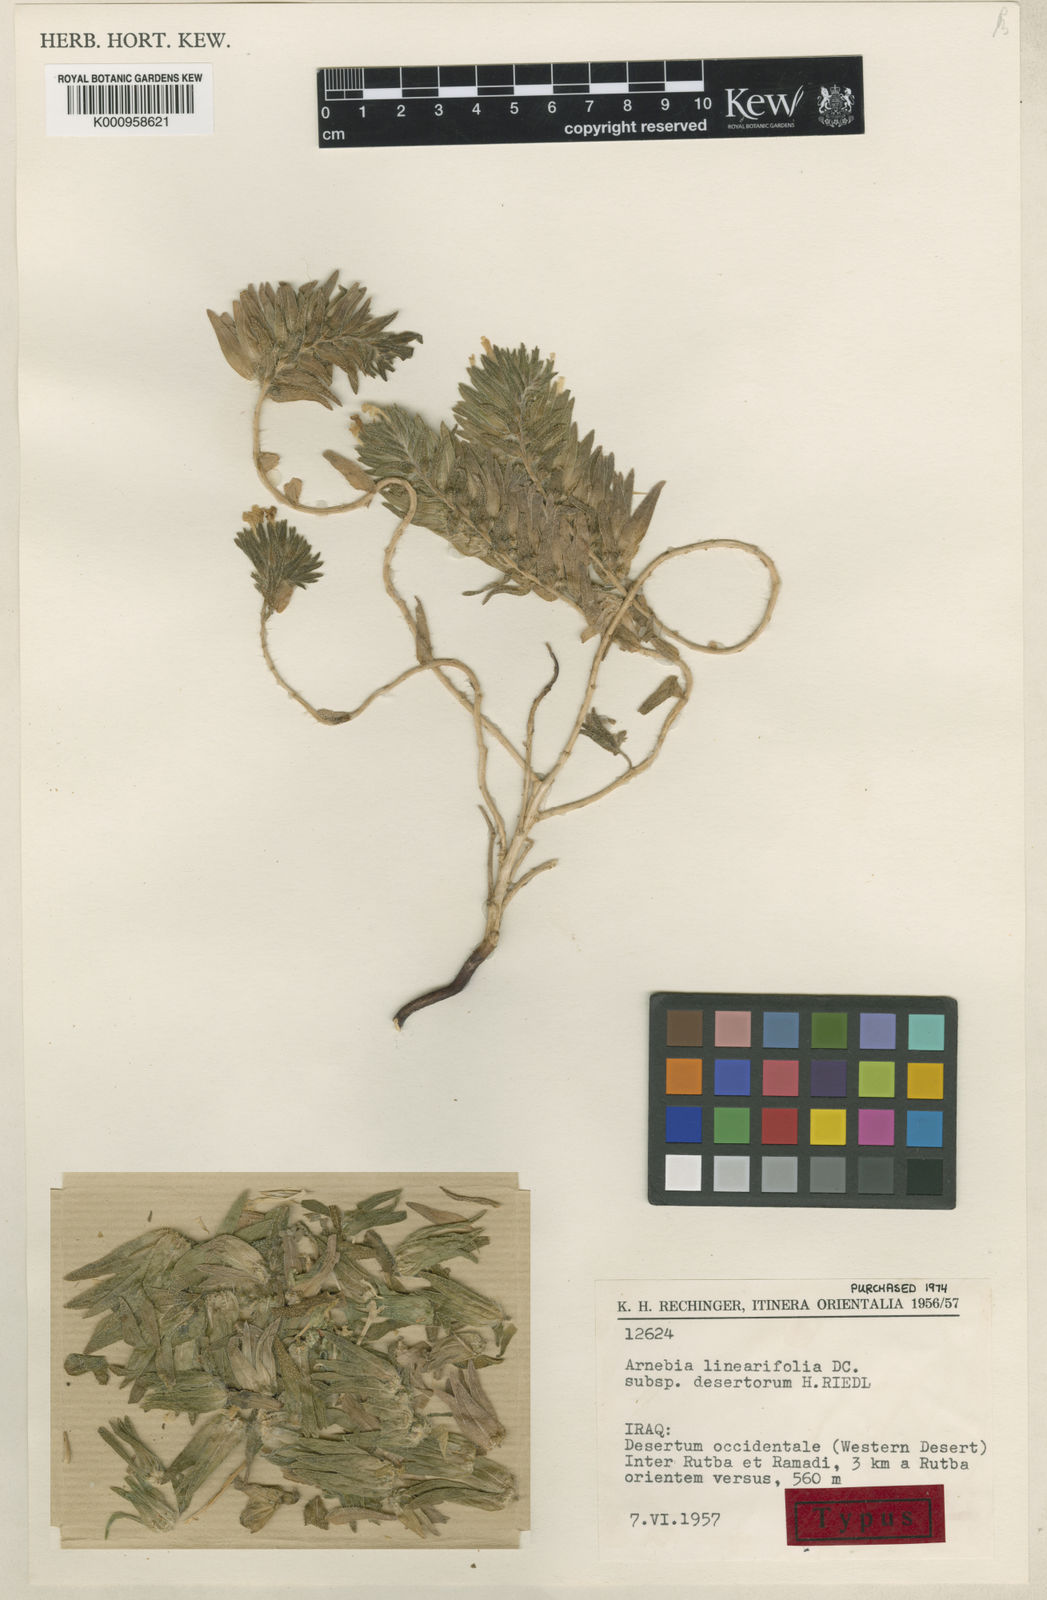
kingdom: Plantae
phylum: Tracheophyta
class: Magnoliopsida
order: Boraginales
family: Boraginaceae
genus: Arnebia
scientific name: Arnebia linearifolia
